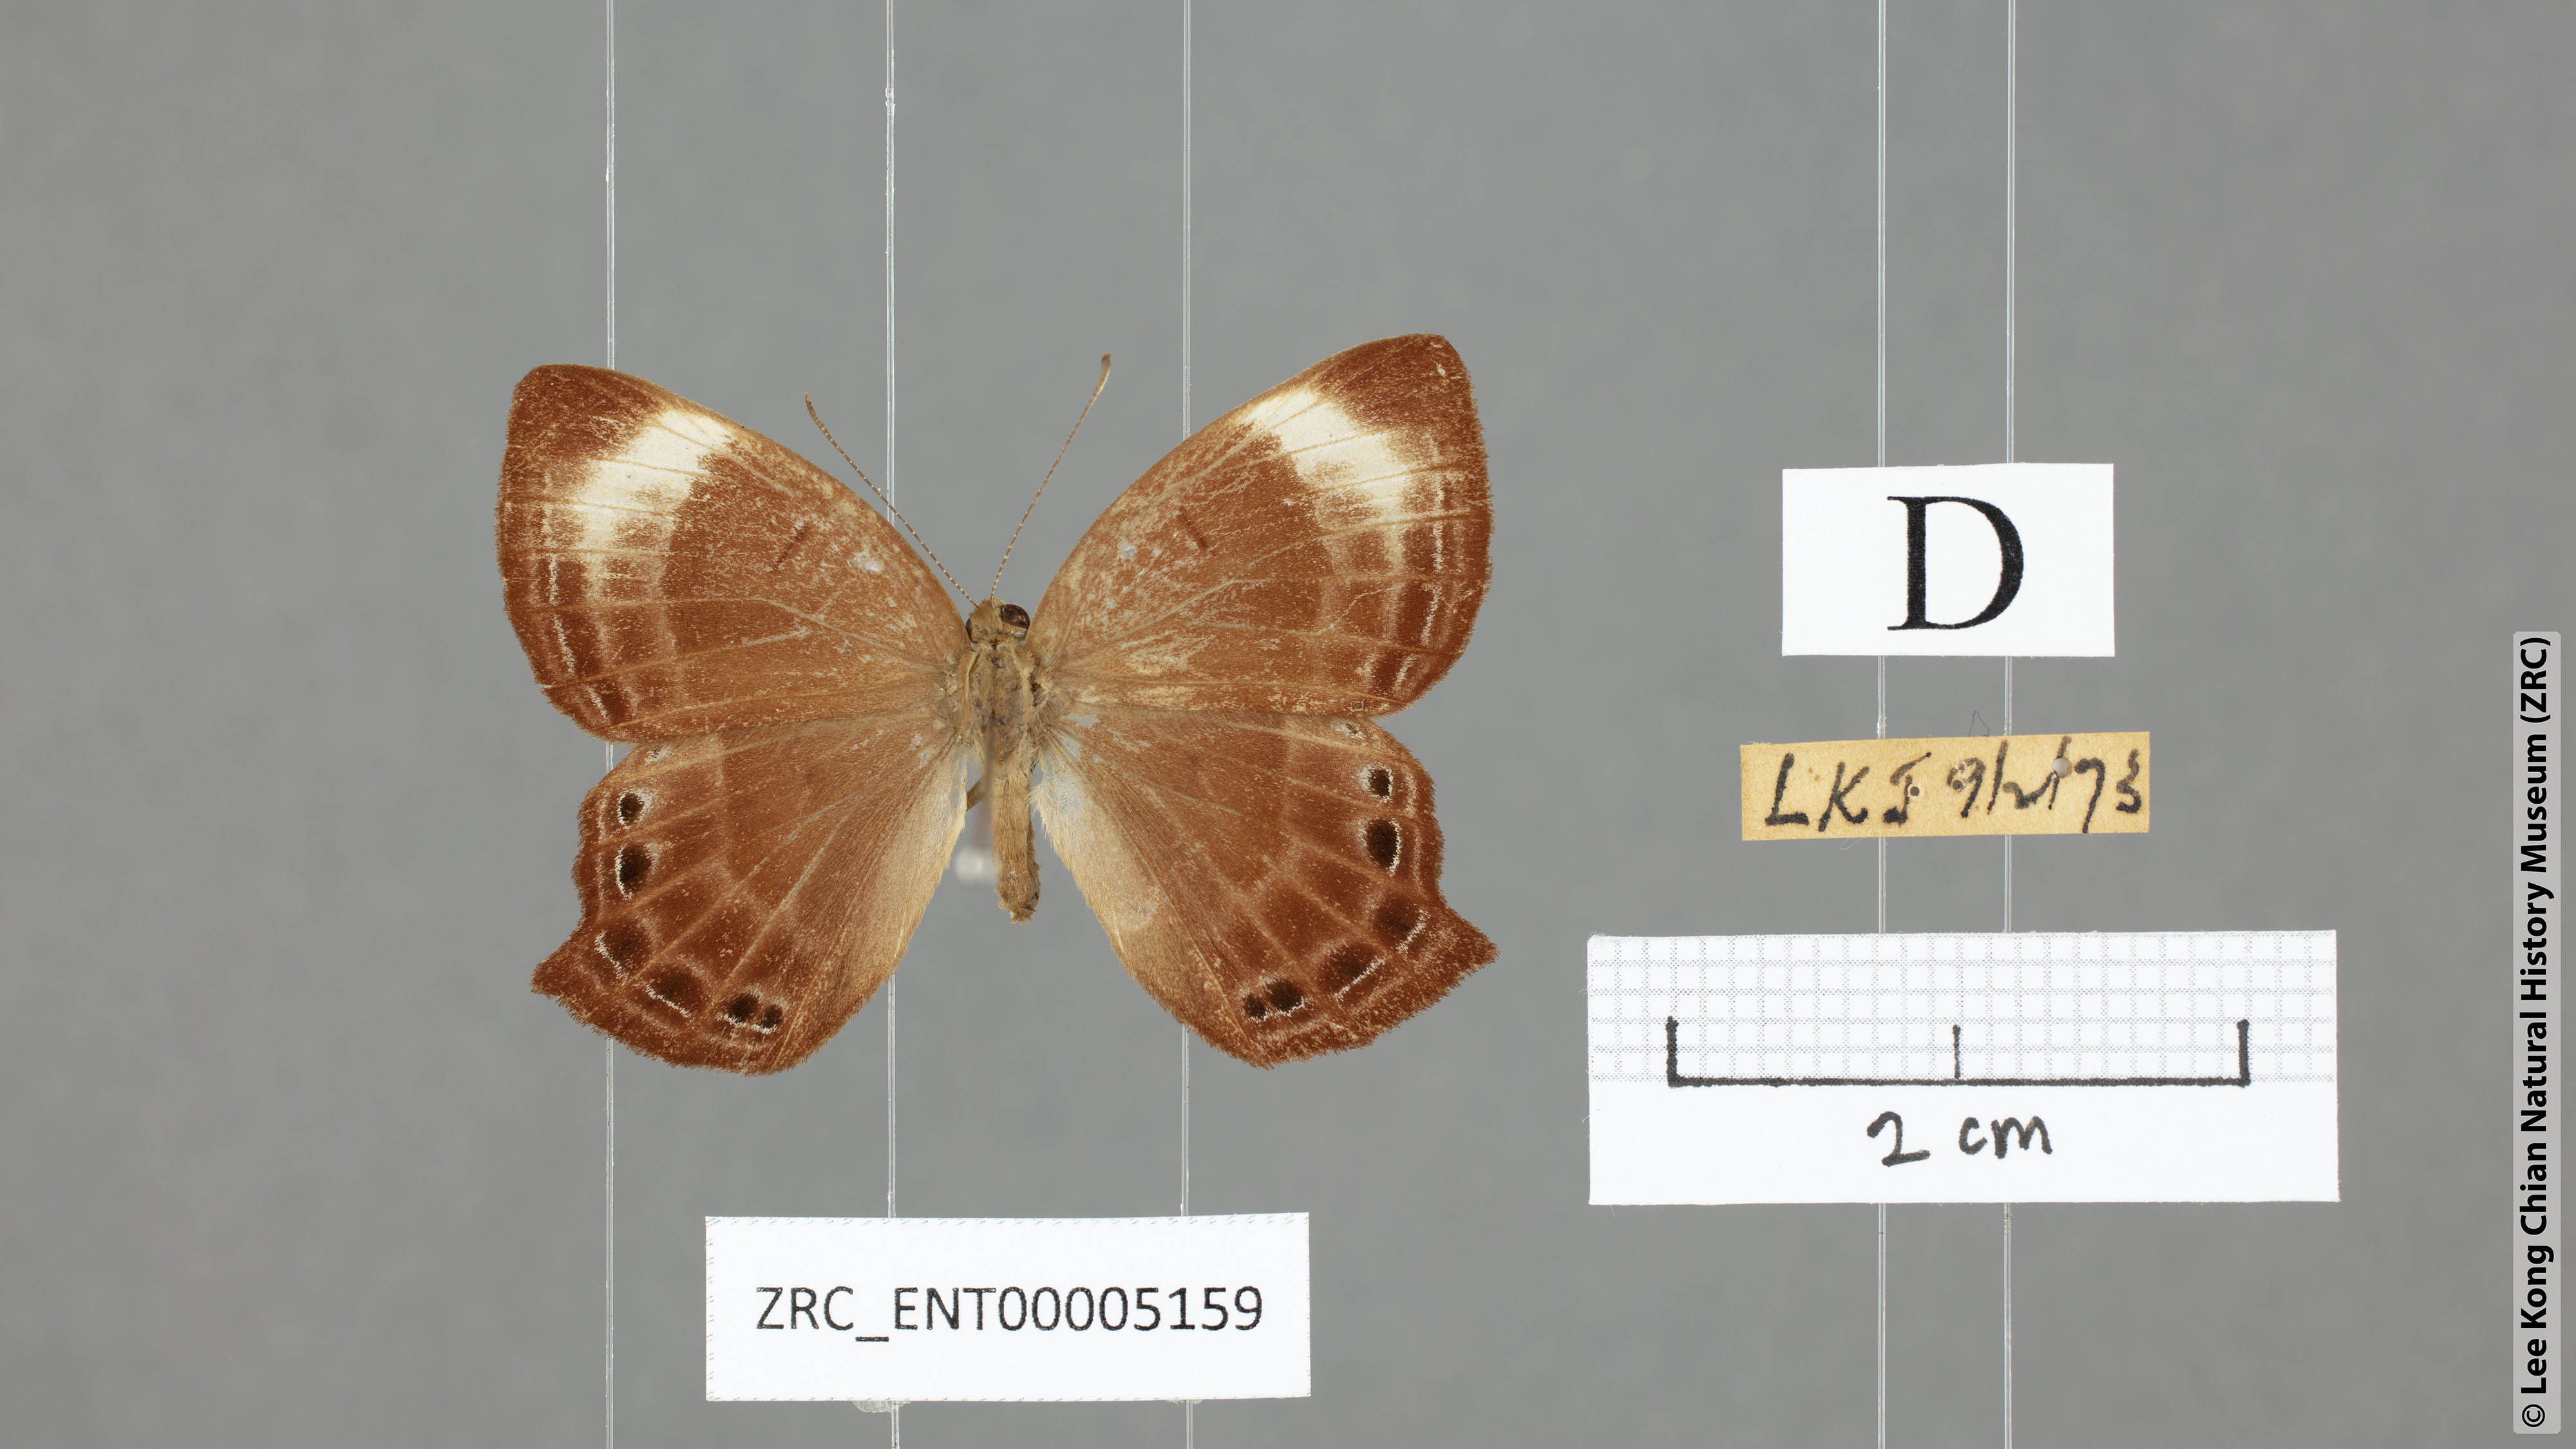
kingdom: Animalia
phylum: Arthropoda
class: Insecta
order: Lepidoptera
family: Lycaenidae
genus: Abisara
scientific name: Abisara kausambi
